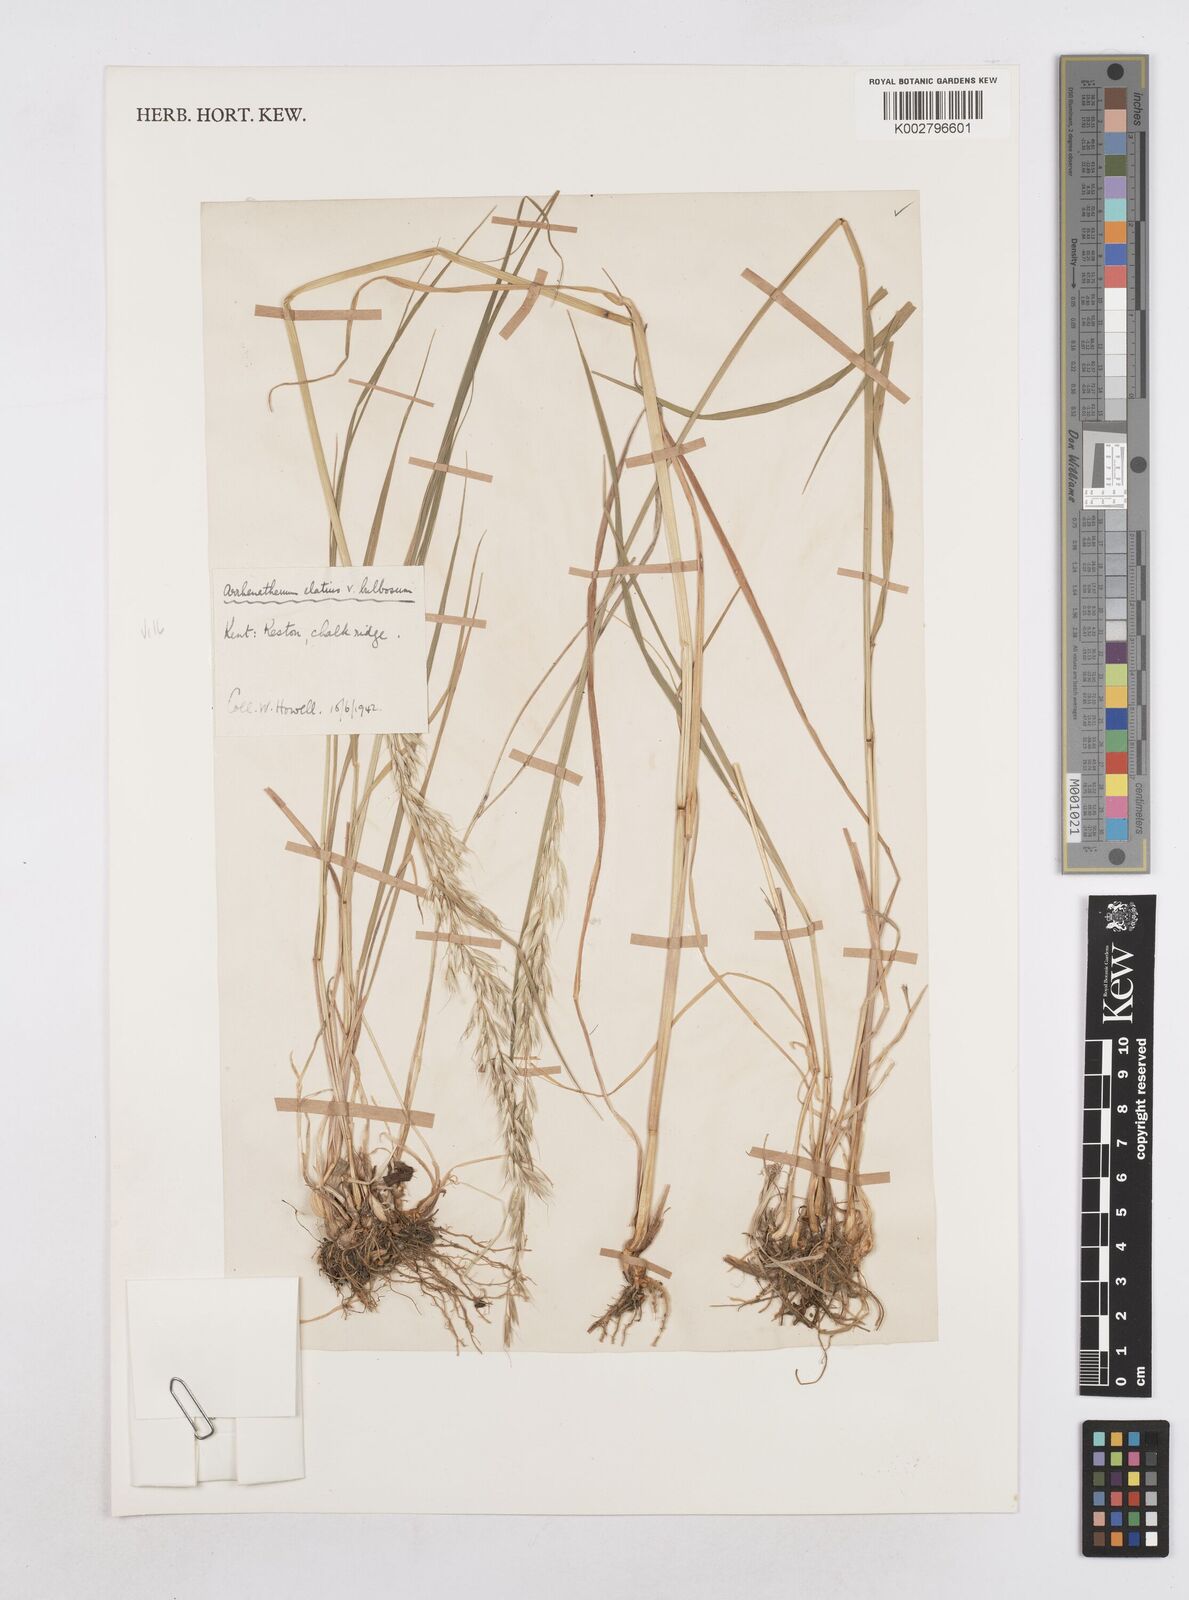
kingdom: Plantae
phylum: Tracheophyta
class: Liliopsida
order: Poales
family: Poaceae
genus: Arrhenatherum
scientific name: Arrhenatherum elatius
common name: Tall oatgrass
